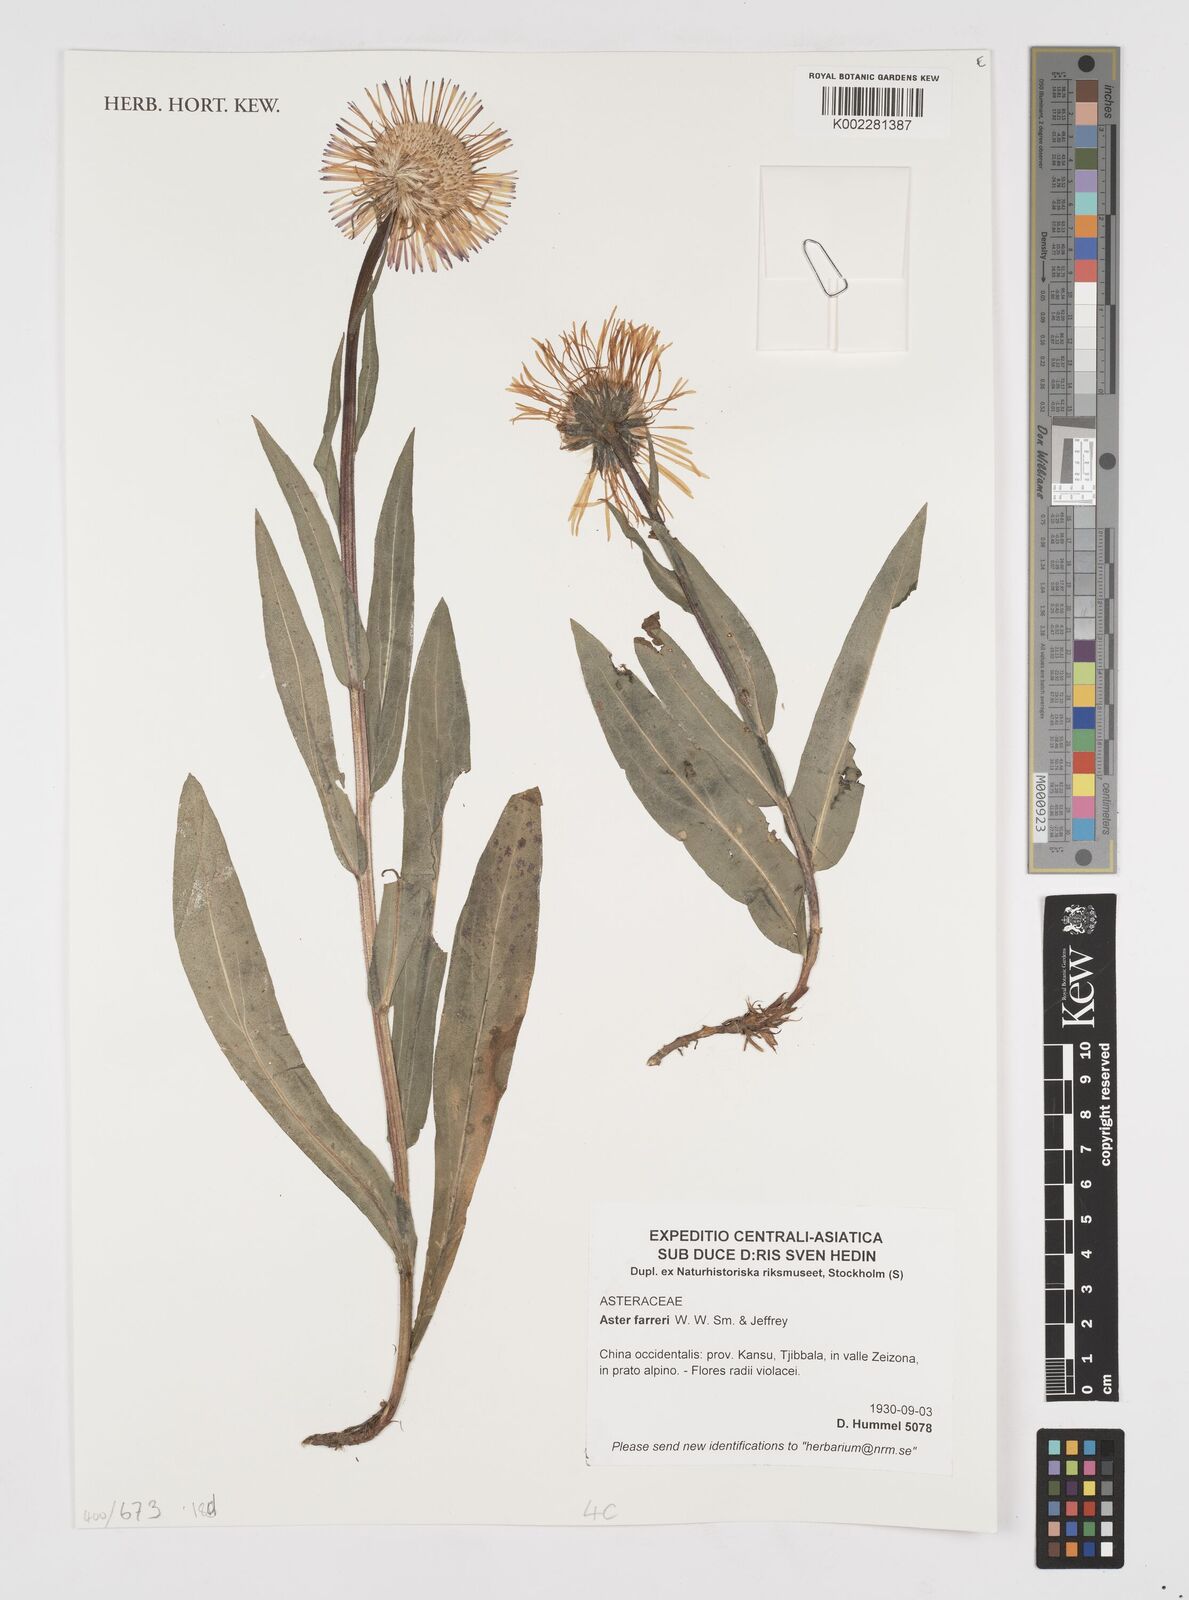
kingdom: Plantae
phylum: Tracheophyta
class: Magnoliopsida
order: Asterales
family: Asteraceae
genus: Tibetiodes
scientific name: Tibetiodes farreri
